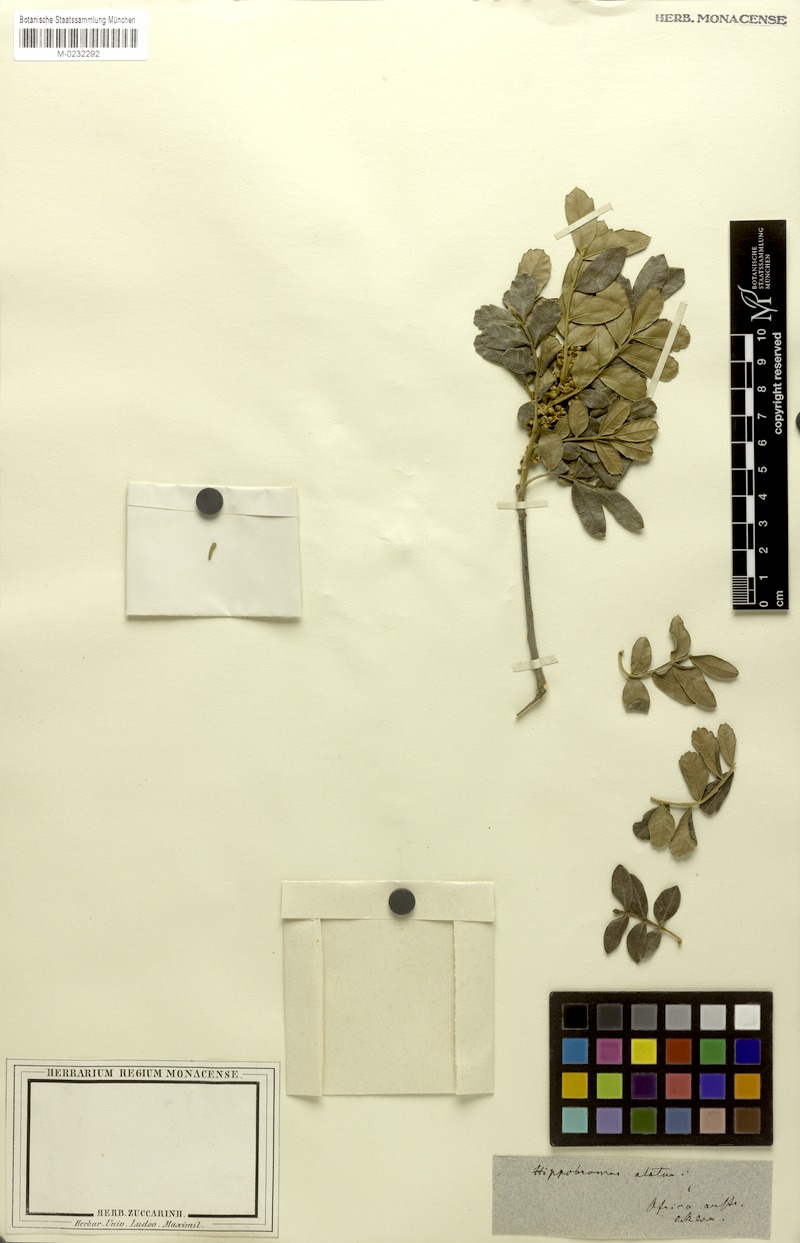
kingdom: Plantae
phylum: Tracheophyta
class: Magnoliopsida
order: Sapindales
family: Sapindaceae
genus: Hippobromus
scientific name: Hippobromus pauciflorus
